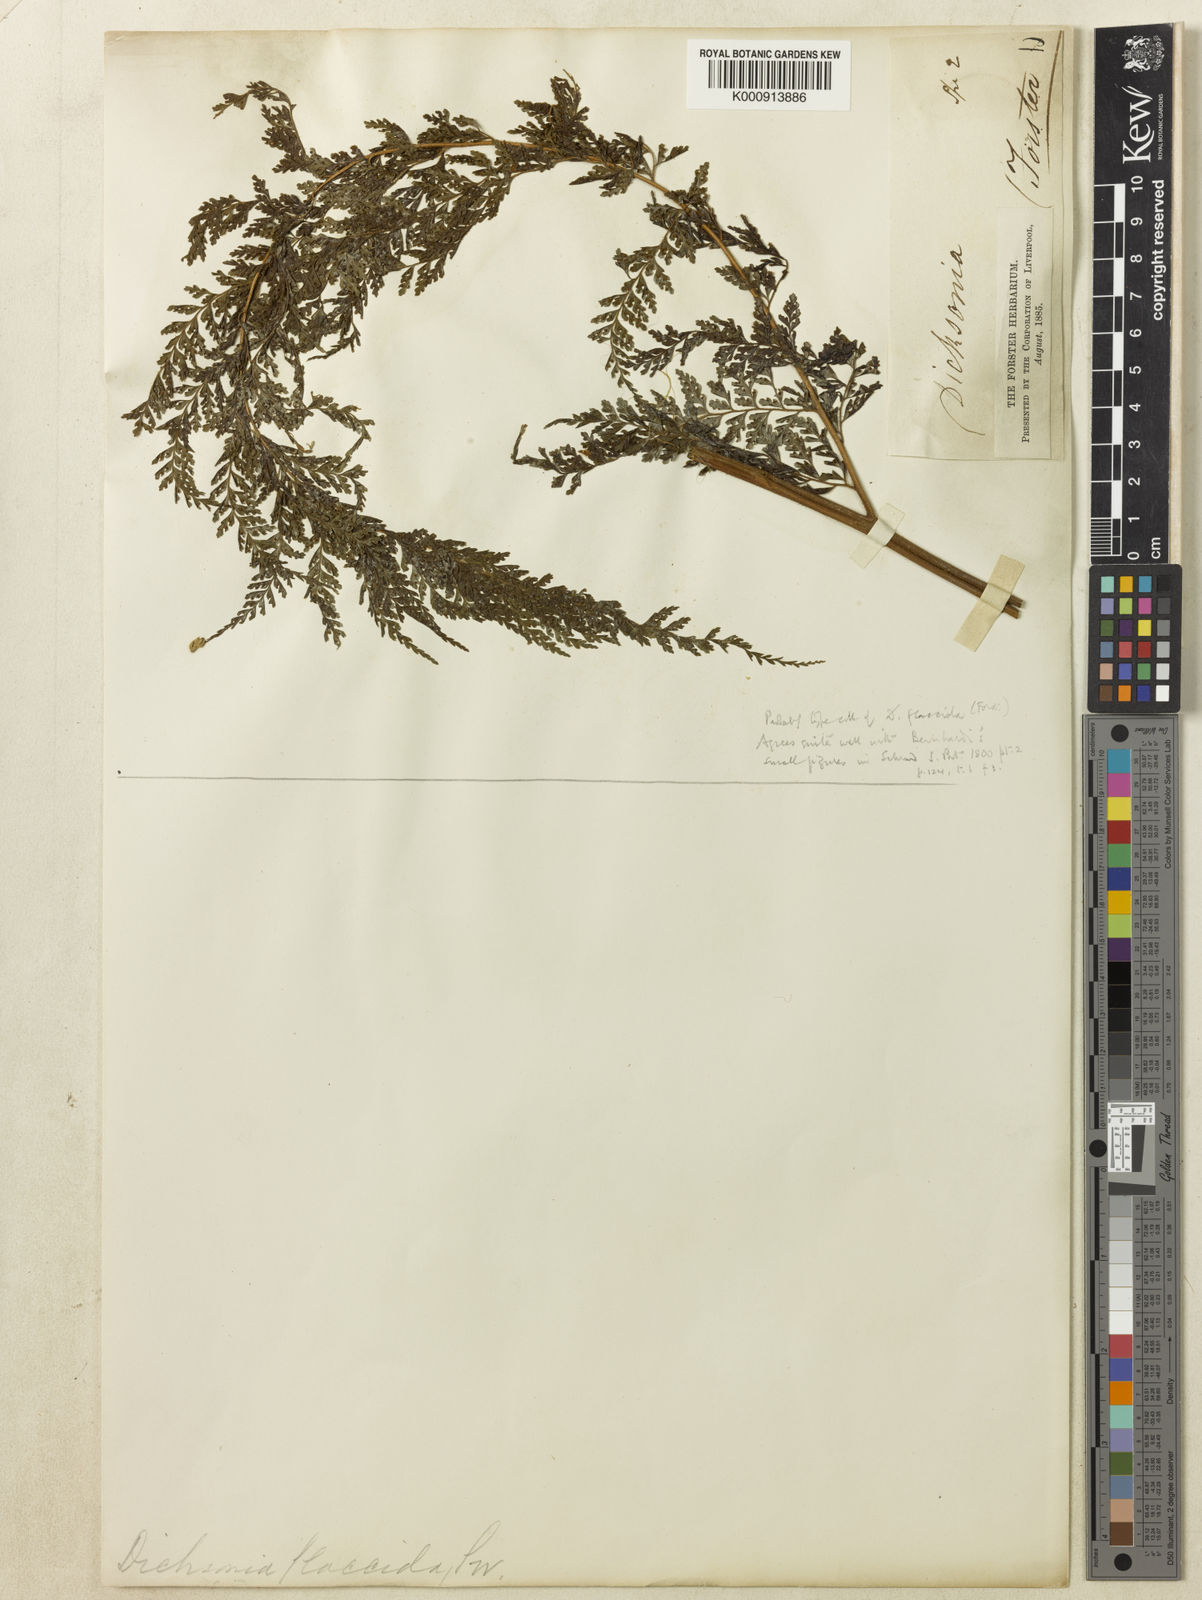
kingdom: Plantae
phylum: Tracheophyta
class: Polypodiopsida
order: Polypodiales
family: Dennstaedtiaceae
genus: Dennstaedtia
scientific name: Dennstaedtia flaccida
